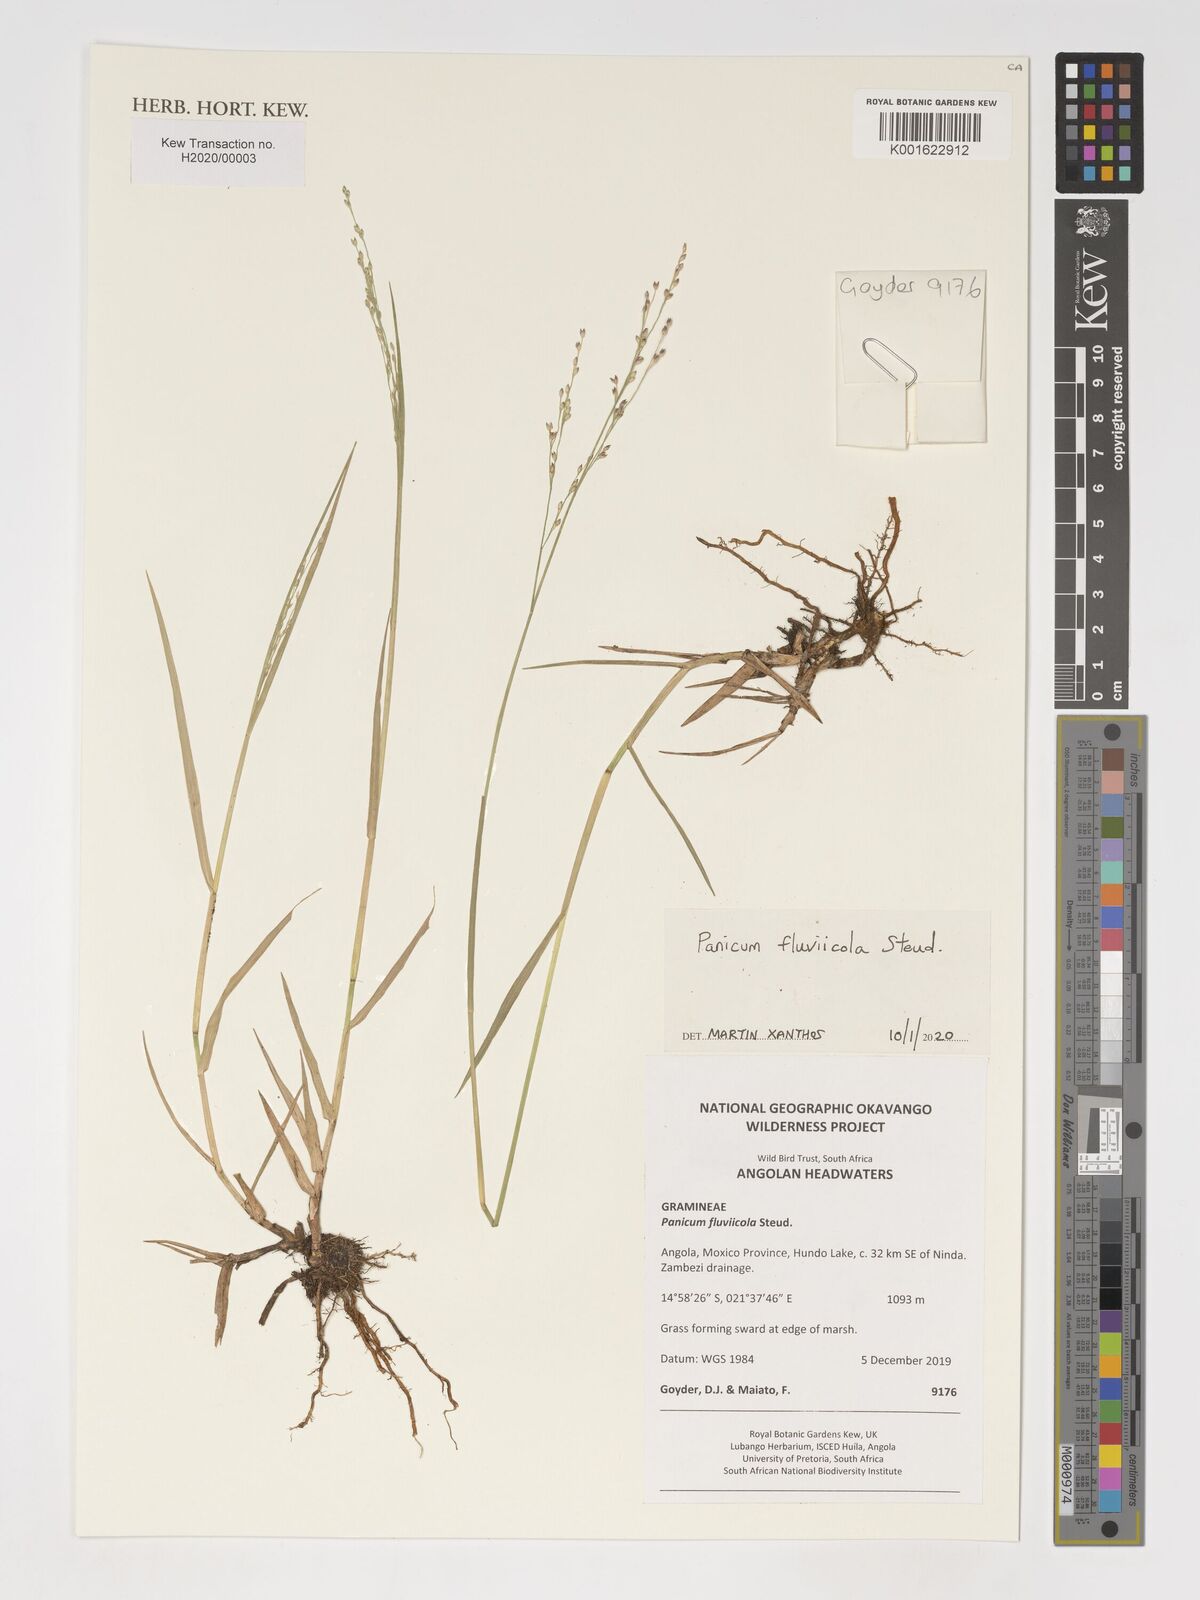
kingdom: Plantae
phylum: Tracheophyta
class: Liliopsida
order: Poales
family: Poaceae
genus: Panicum
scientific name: Panicum fluviicola
